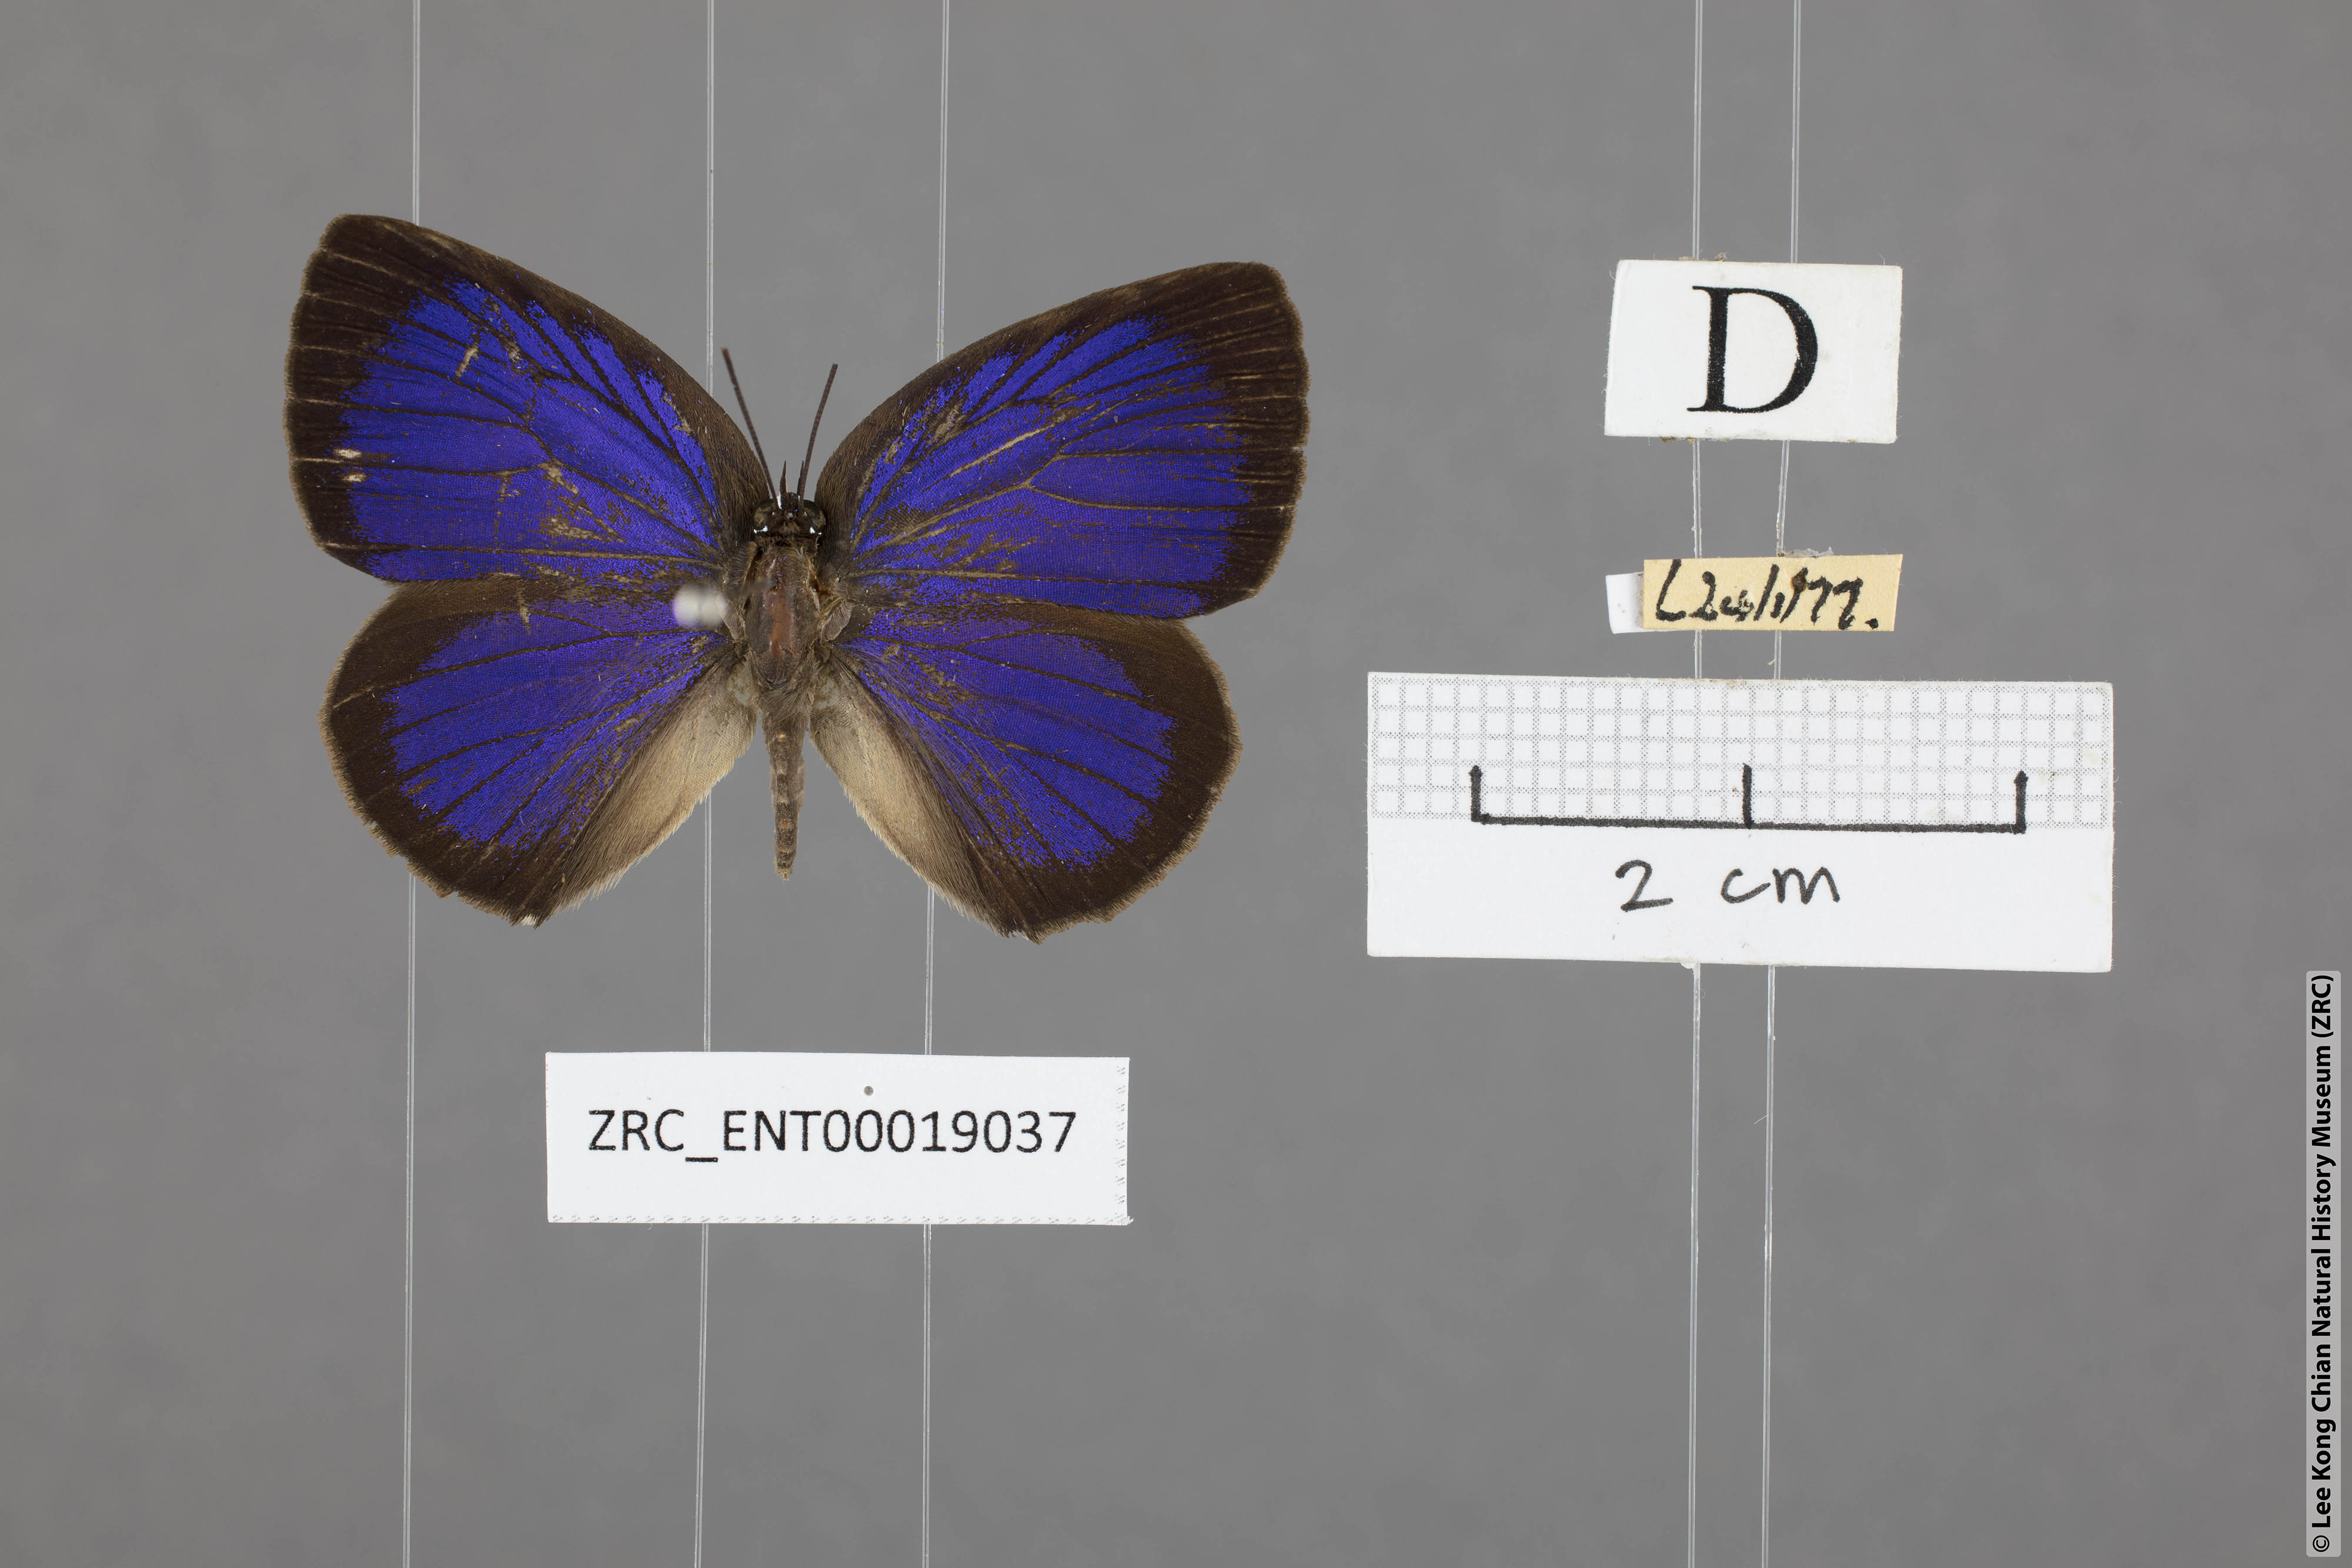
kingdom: Animalia
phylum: Arthropoda
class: Insecta
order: Lepidoptera
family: Lycaenidae
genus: Arhopala
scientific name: Arhopala agesilaus
